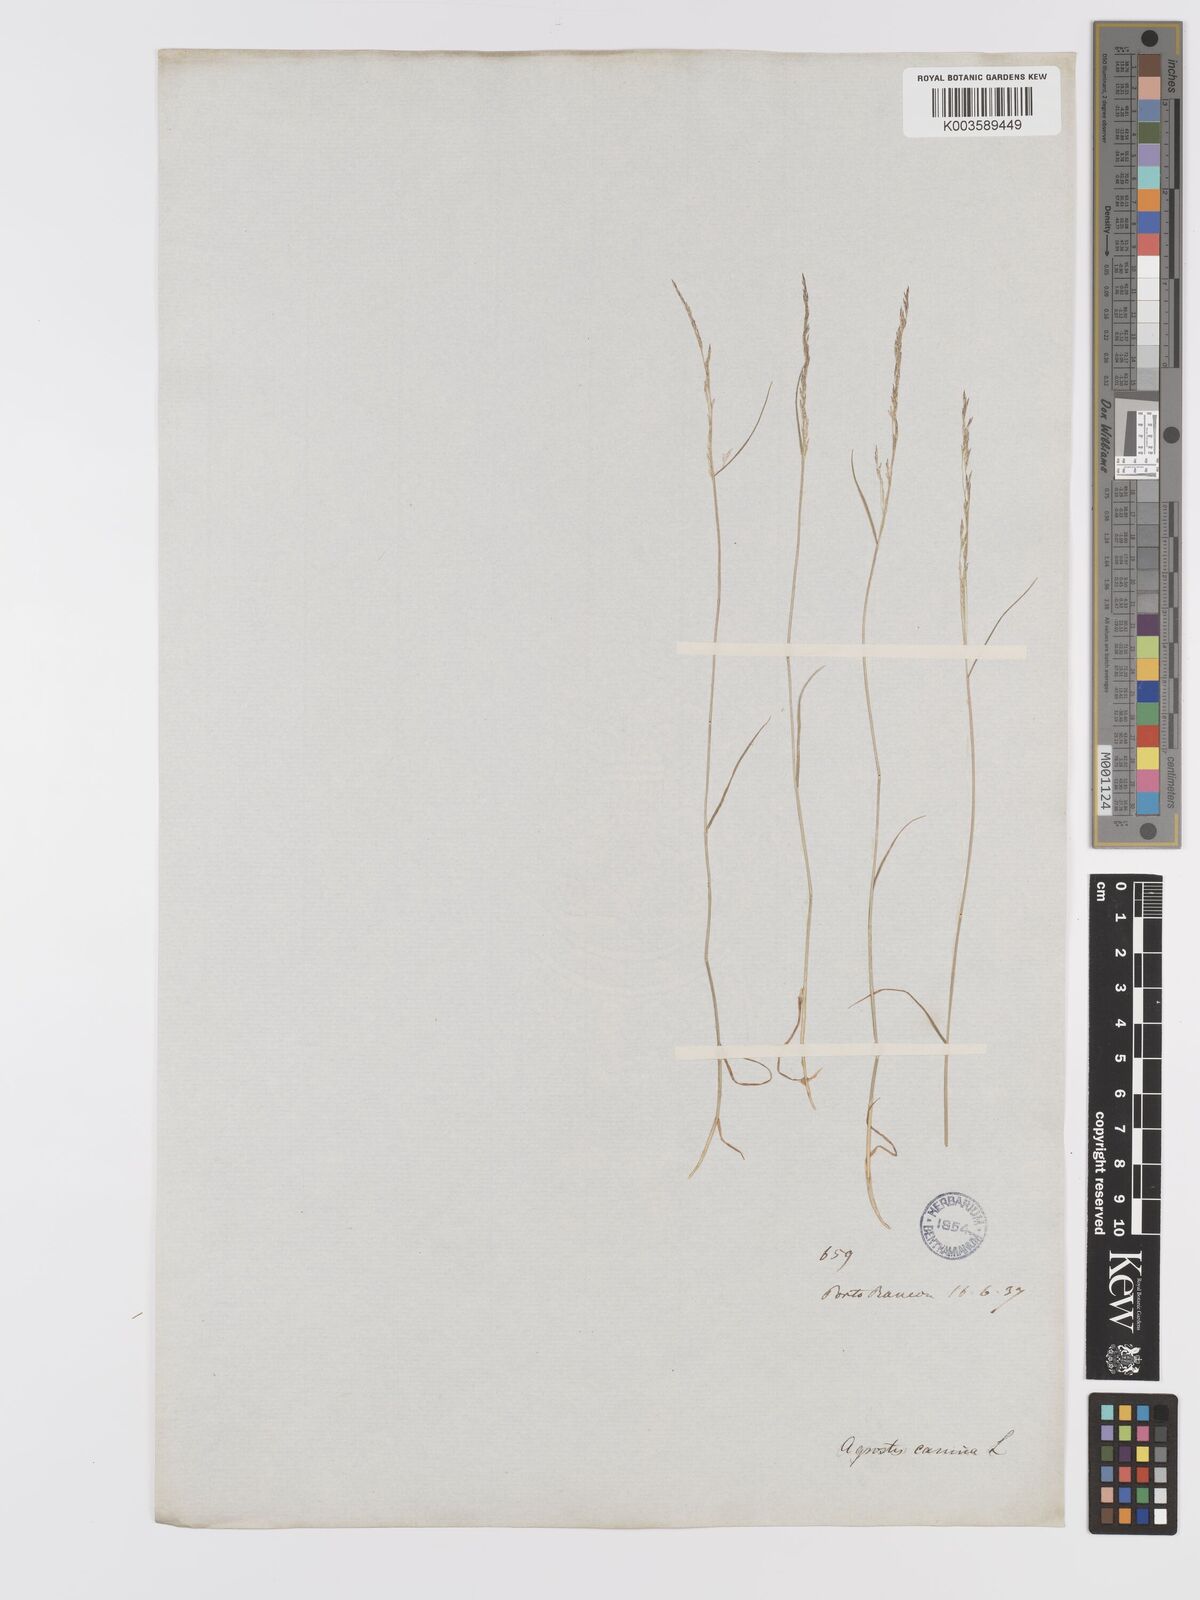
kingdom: Plantae
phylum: Tracheophyta
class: Liliopsida
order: Poales
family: Poaceae
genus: Agrostis
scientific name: Agrostis canina
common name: Velvet bent
